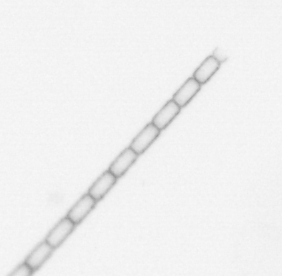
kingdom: Chromista
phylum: Ochrophyta
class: Bacillariophyceae
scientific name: Bacillariophyceae
